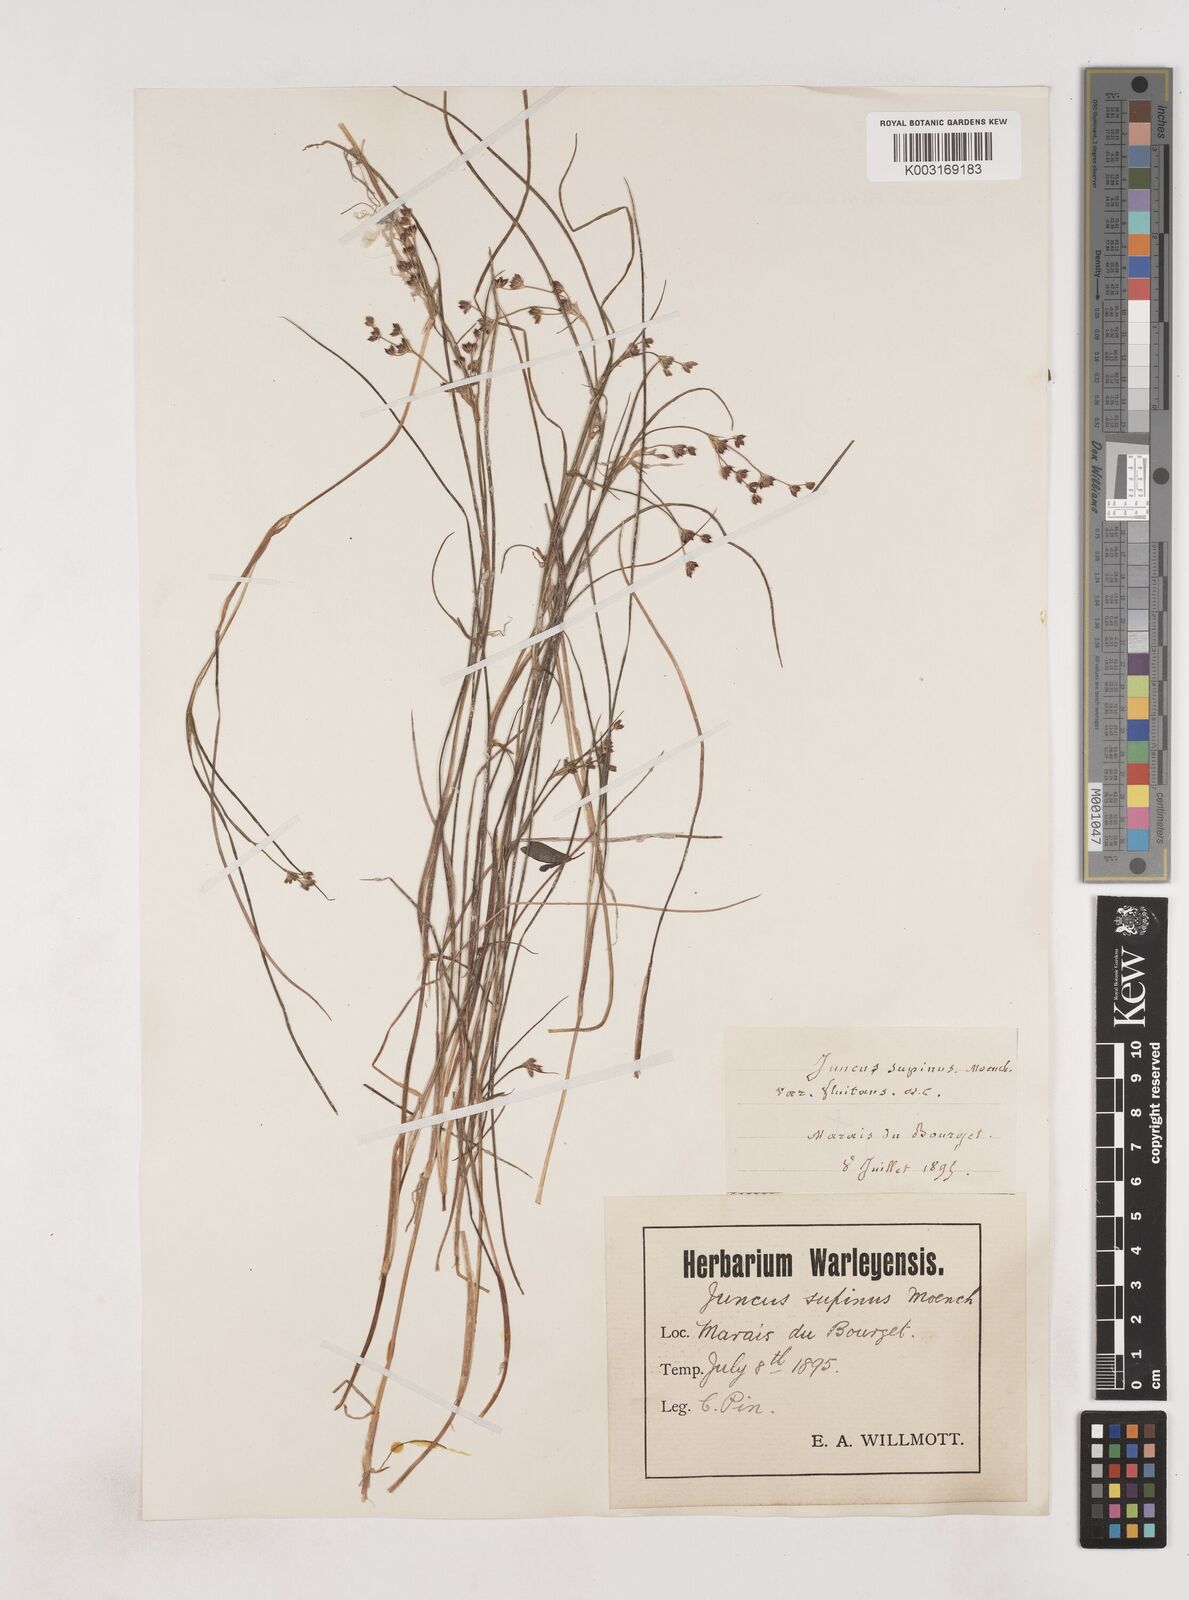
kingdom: Plantae
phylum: Tracheophyta
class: Liliopsida
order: Poales
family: Juncaceae
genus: Juncus
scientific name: Juncus bulbosus
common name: Bulbous rush
